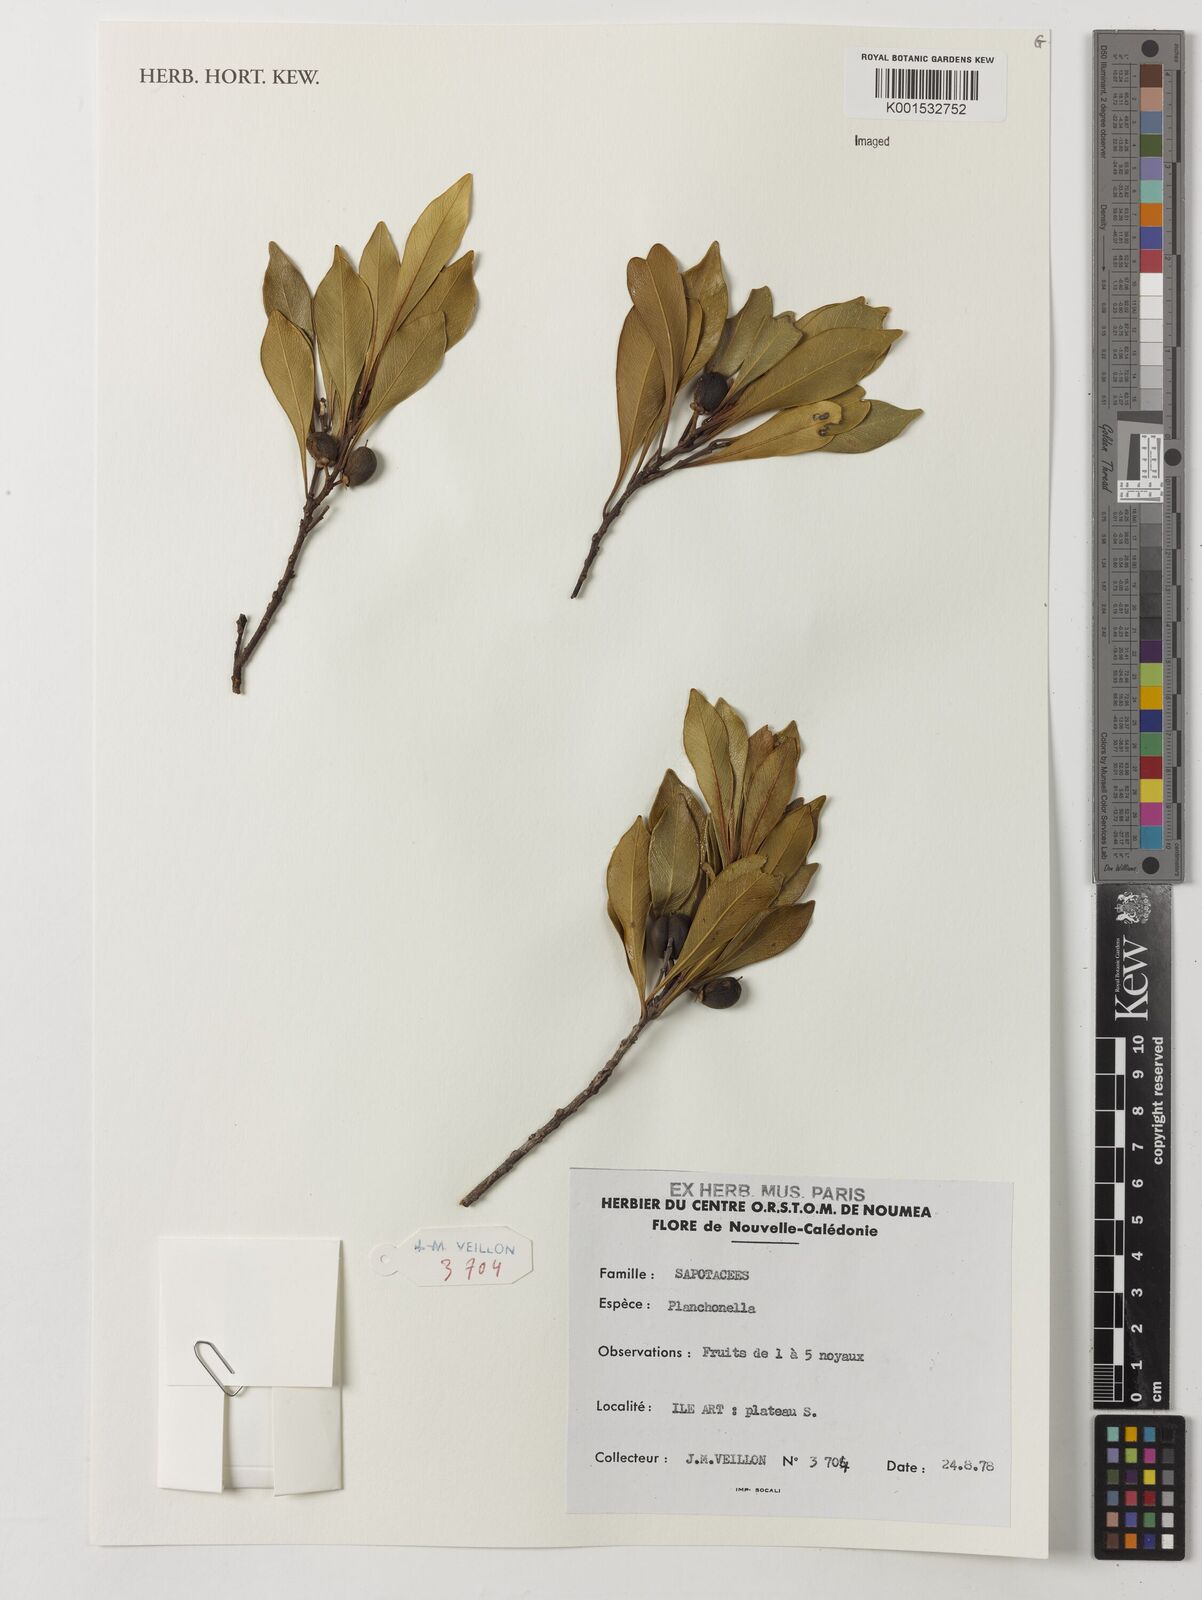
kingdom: Plantae
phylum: Tracheophyta
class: Magnoliopsida
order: Ericales
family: Sapotaceae
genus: Planchonella
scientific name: Planchonella
